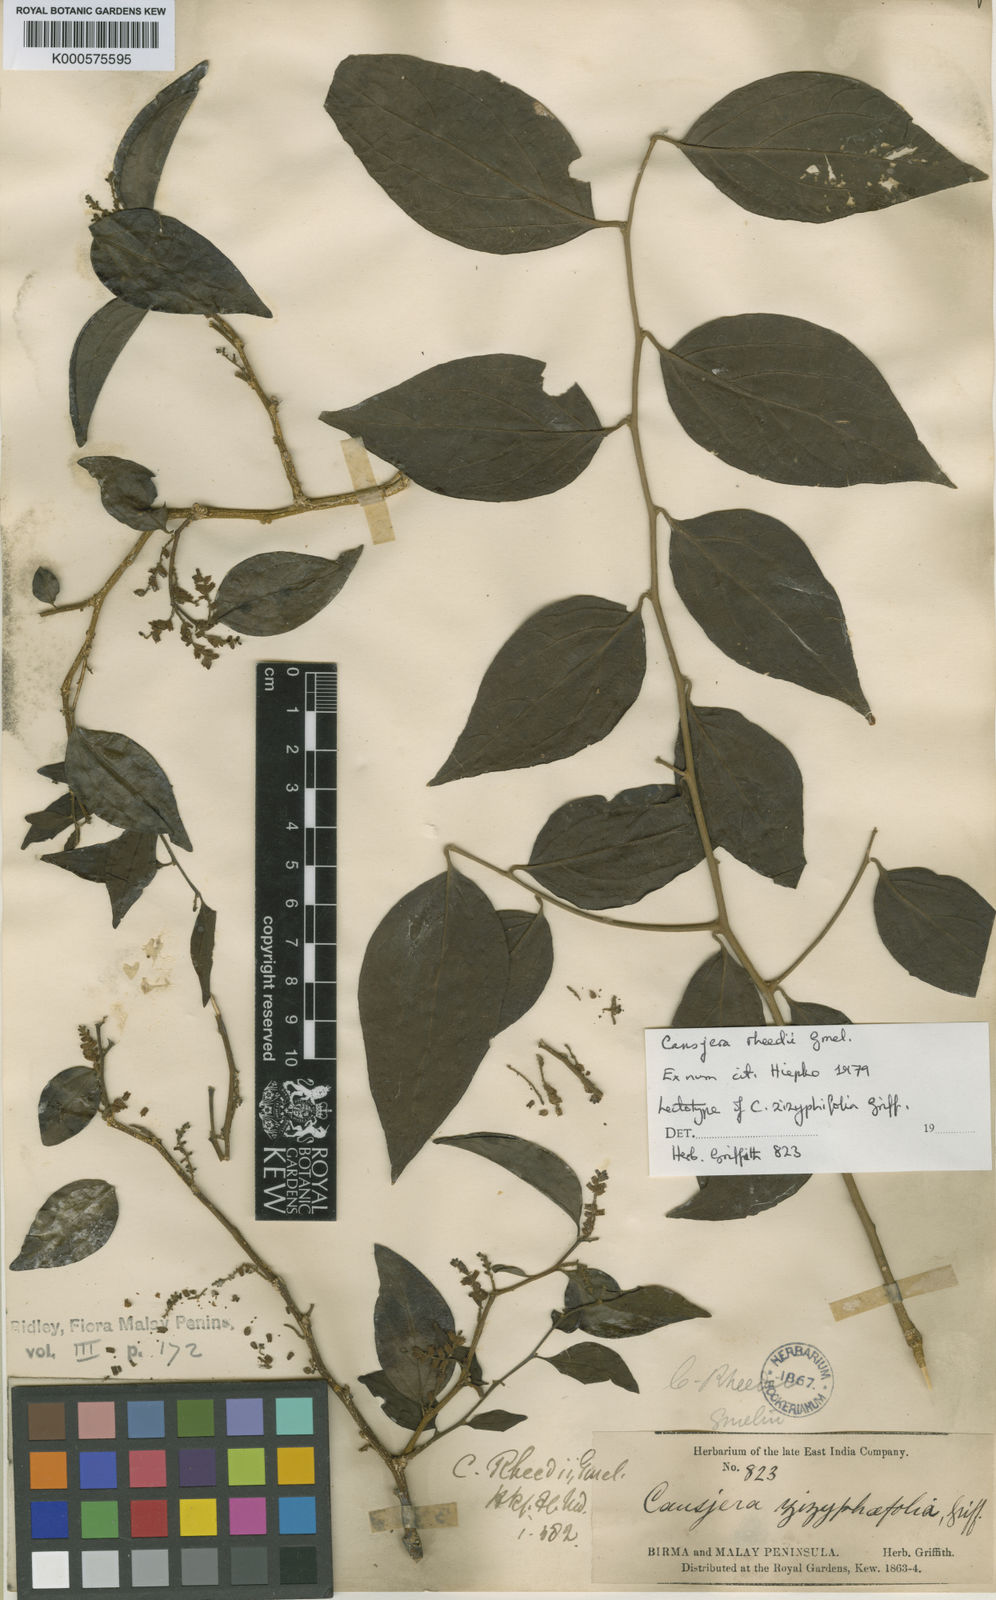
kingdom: Plantae
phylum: Tracheophyta
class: Magnoliopsida
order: Santalales
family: Opiliaceae
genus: Cansjera
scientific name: Cansjera rheedei
